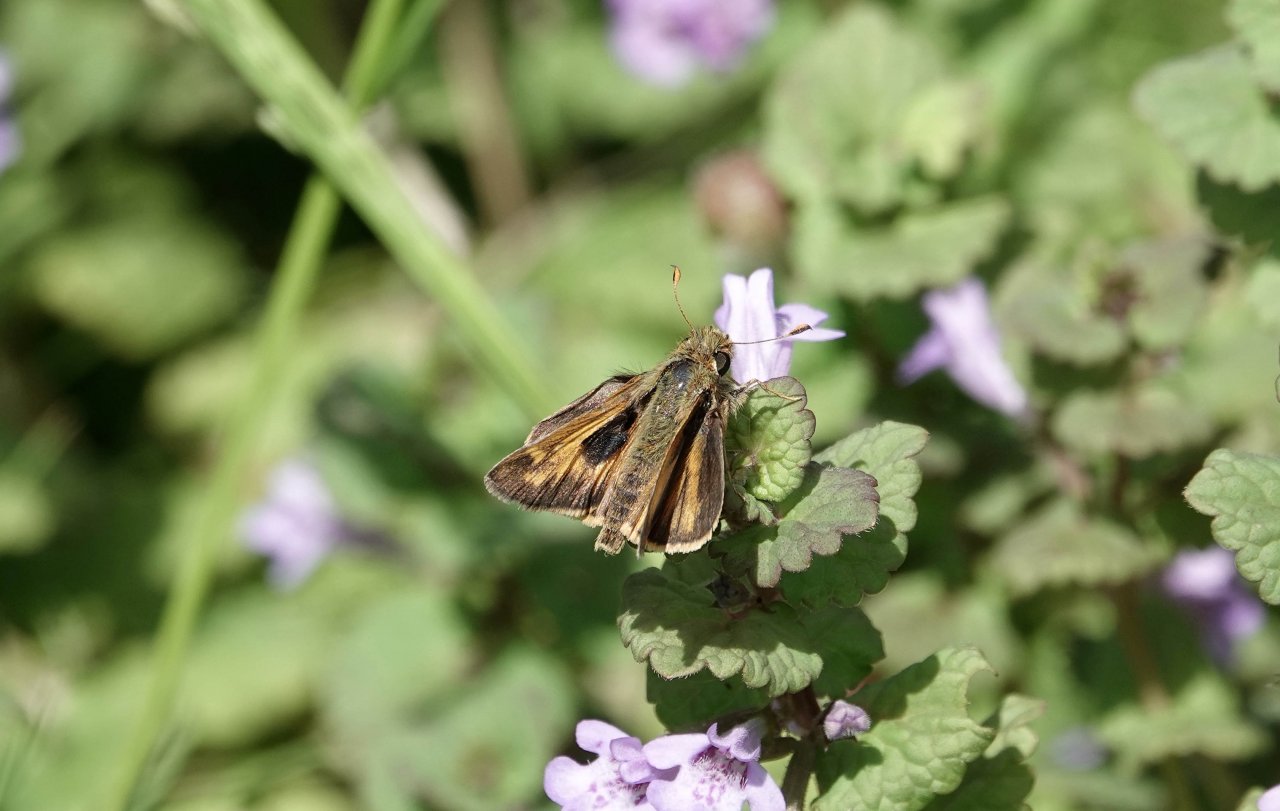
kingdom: Animalia
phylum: Arthropoda
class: Insecta
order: Lepidoptera
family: Hesperiidae
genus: Atalopedes
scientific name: Atalopedes campestris
